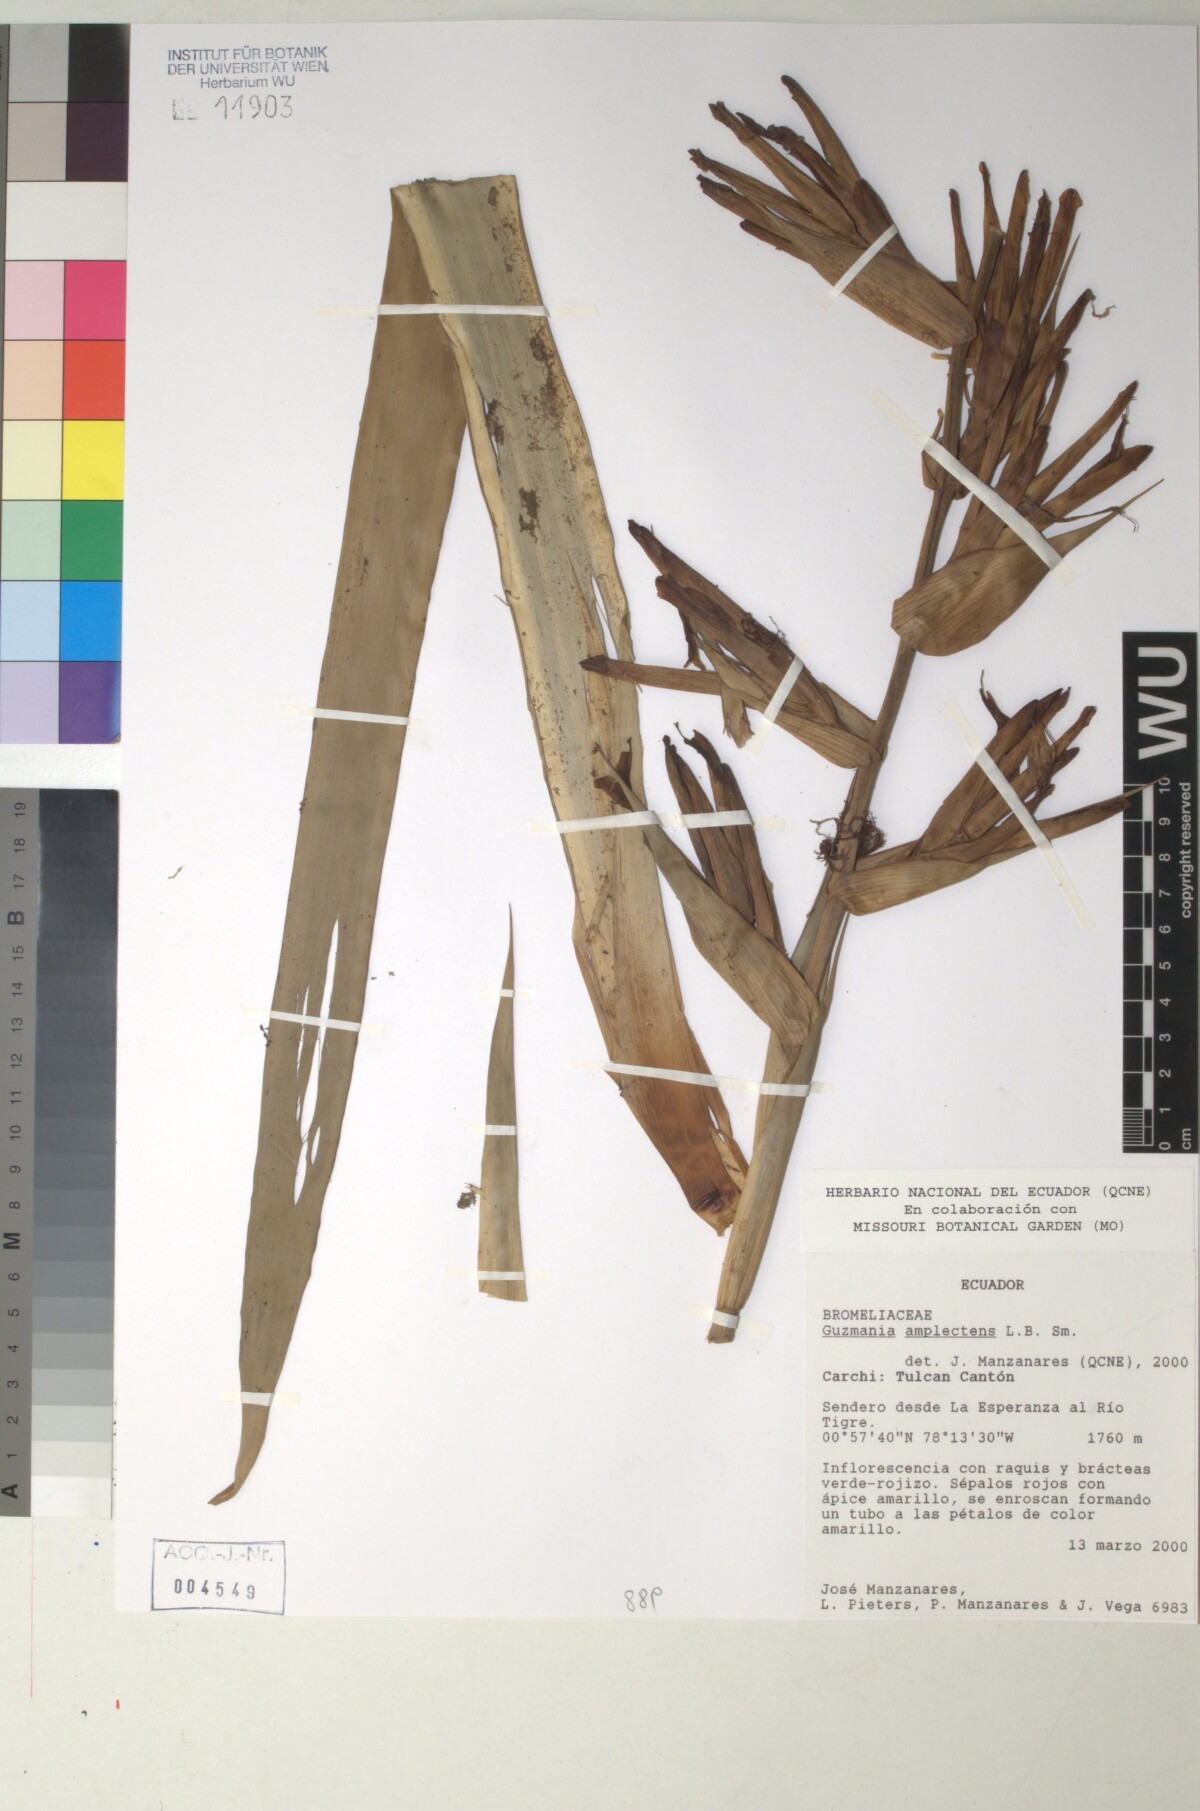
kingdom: Plantae
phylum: Tracheophyta
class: Liliopsida
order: Poales
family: Bromeliaceae
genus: Guzmania
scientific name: Guzmania amplectens
